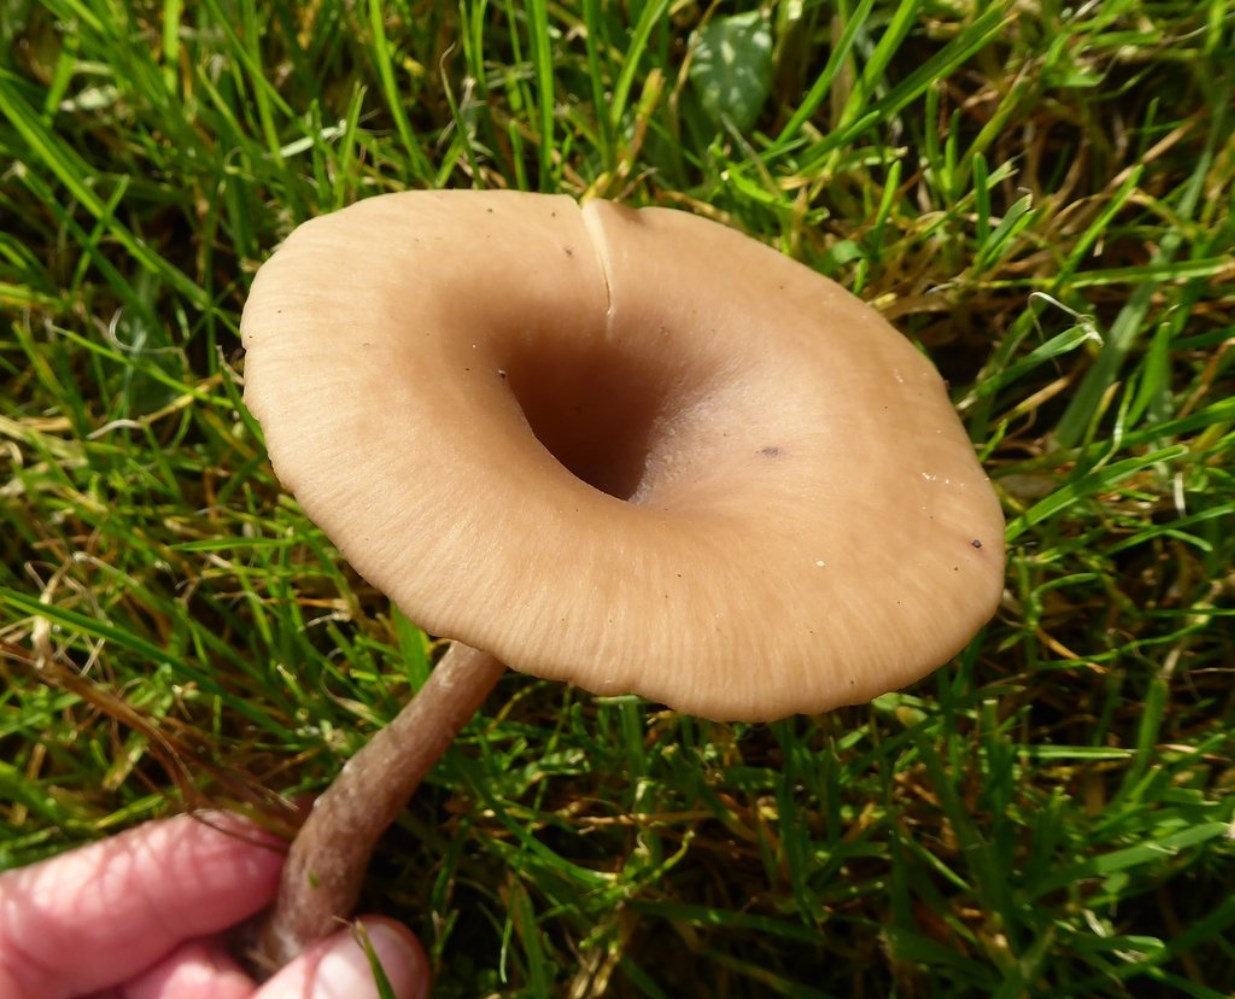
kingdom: Fungi
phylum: Basidiomycota
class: Agaricomycetes
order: Agaricales
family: Pseudoclitocybaceae
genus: Pseudoclitocybe
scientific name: Pseudoclitocybe cyathiformis
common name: almindelig bægertragthat
